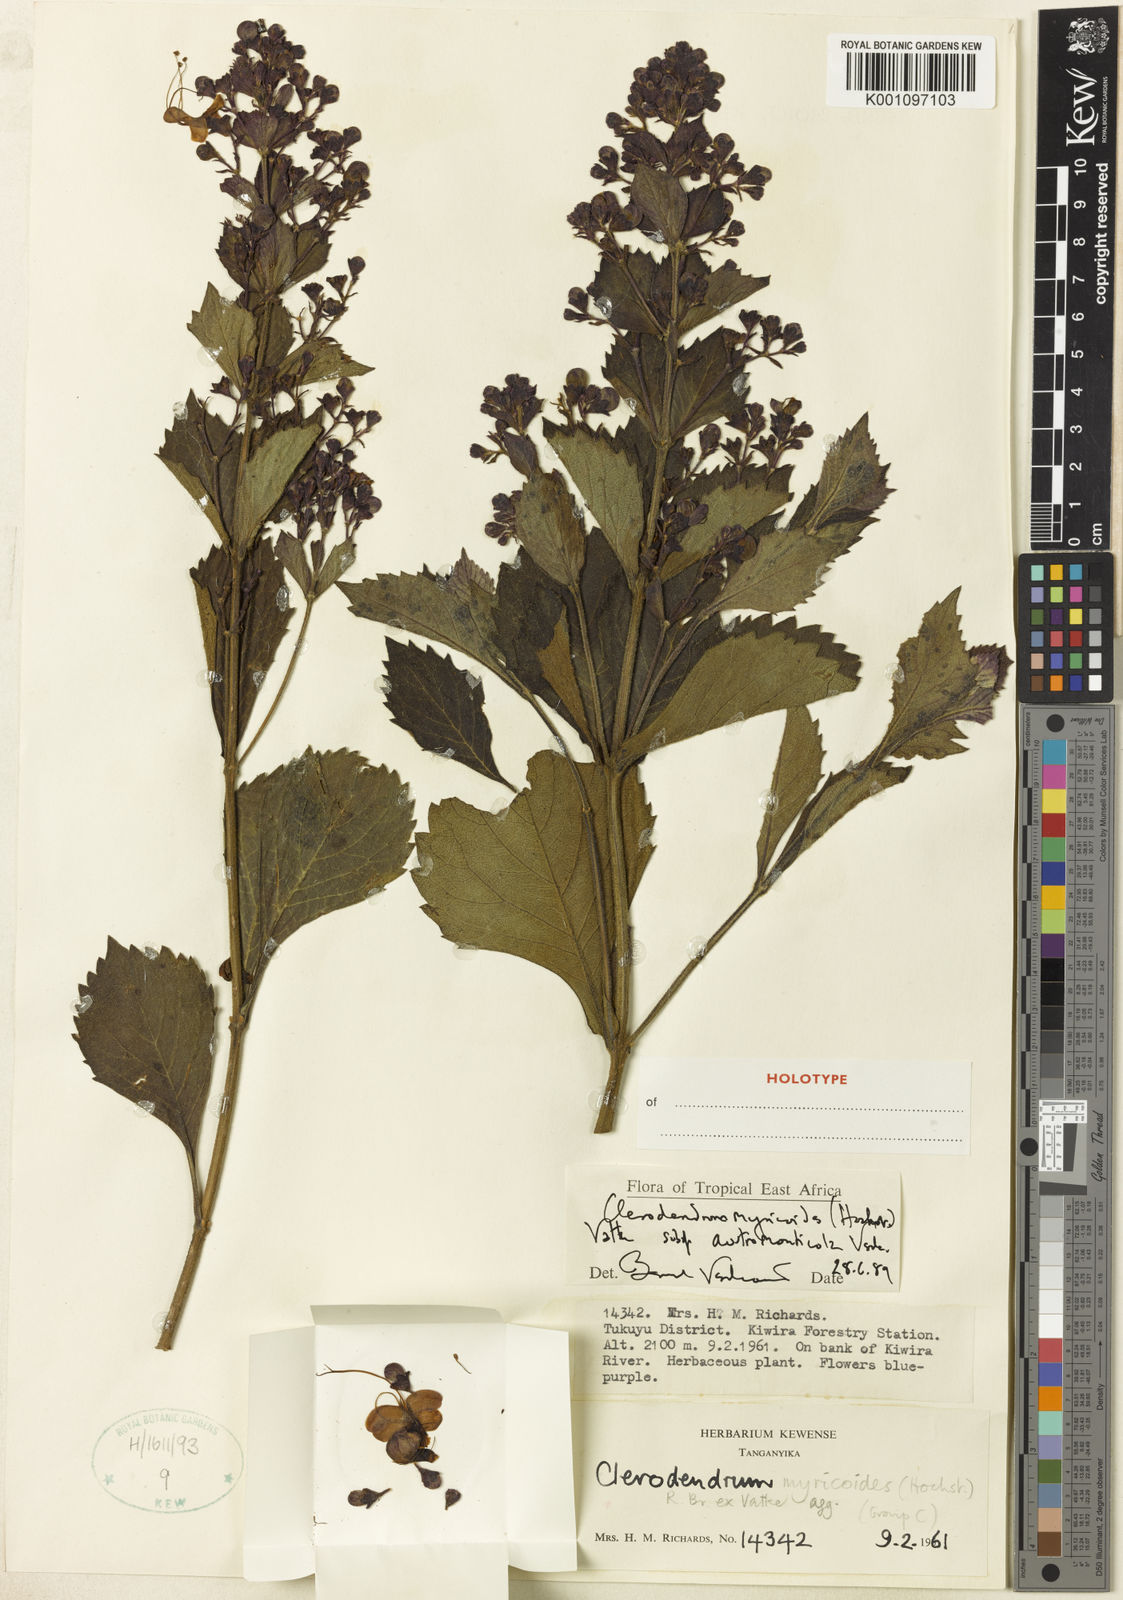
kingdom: Plantae
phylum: Tracheophyta
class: Magnoliopsida
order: Lamiales
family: Lamiaceae
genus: Rotheca
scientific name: Rotheca myricoides
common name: Cats-whiskers
